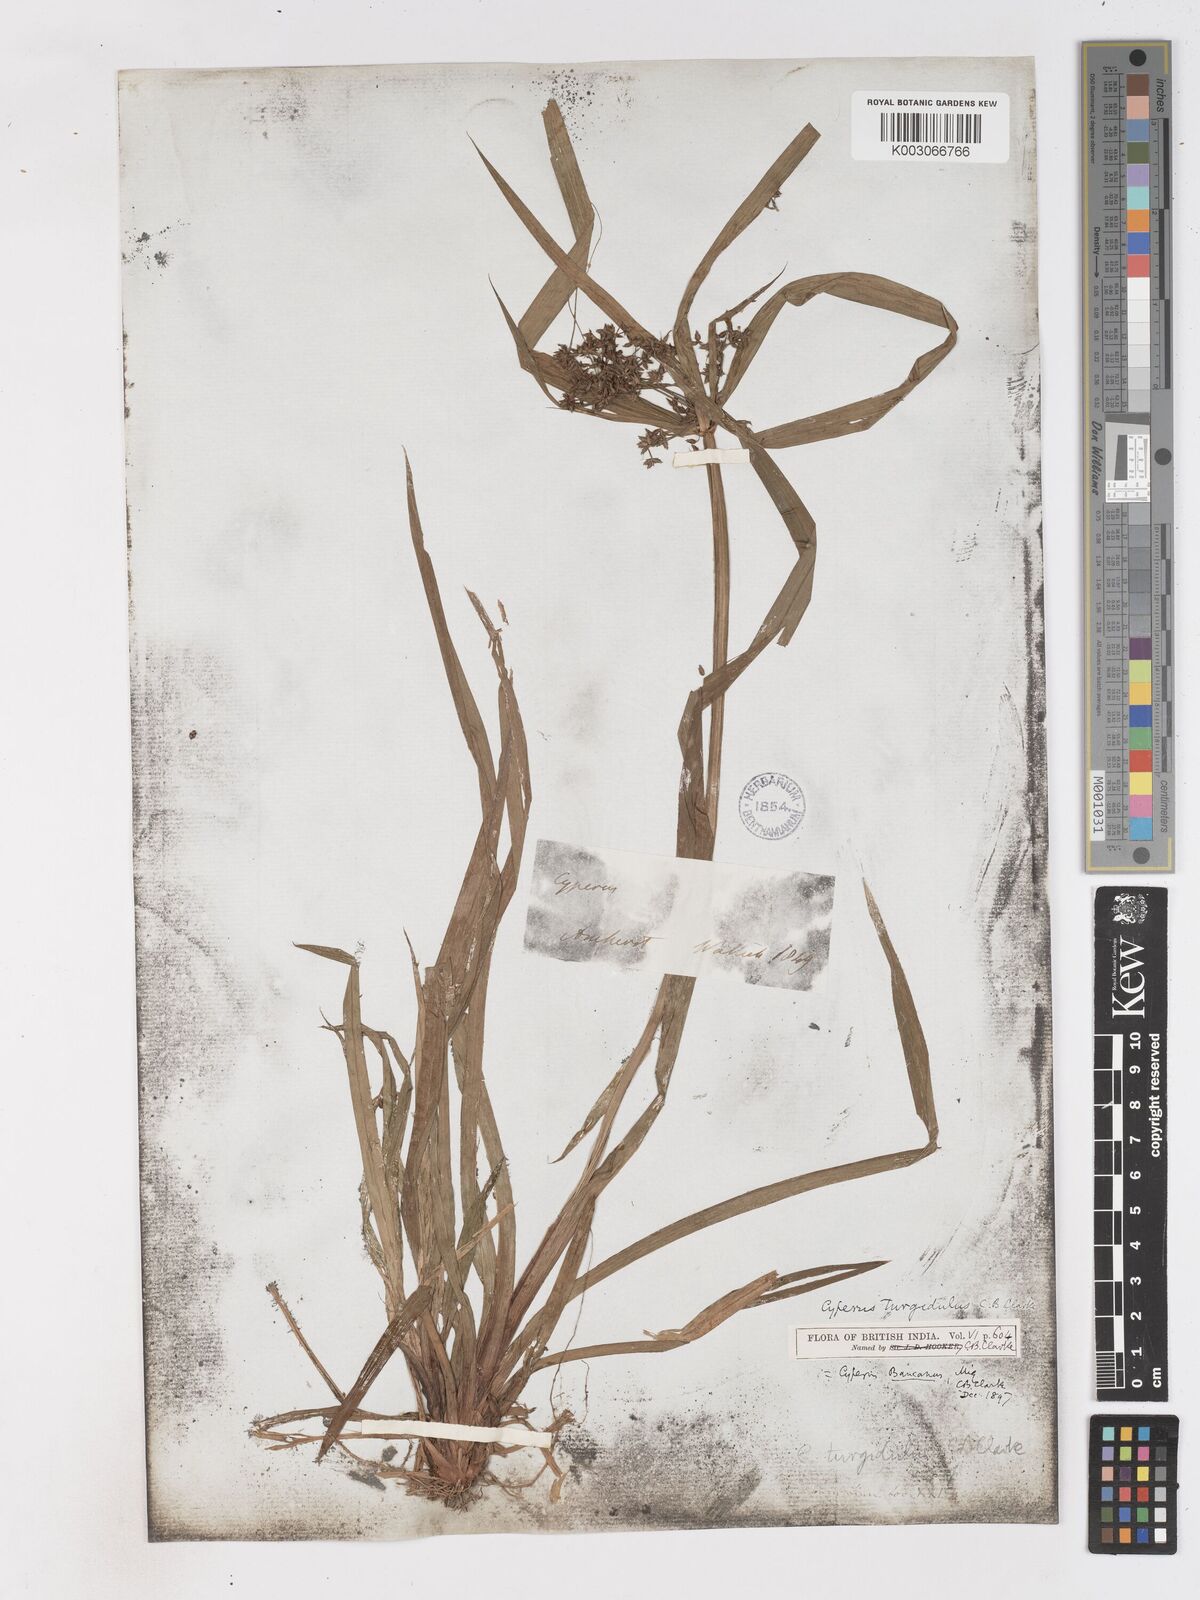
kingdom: Plantae
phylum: Tracheophyta
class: Liliopsida
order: Poales
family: Cyperaceae
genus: Cyperus
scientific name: Cyperus trialatus
